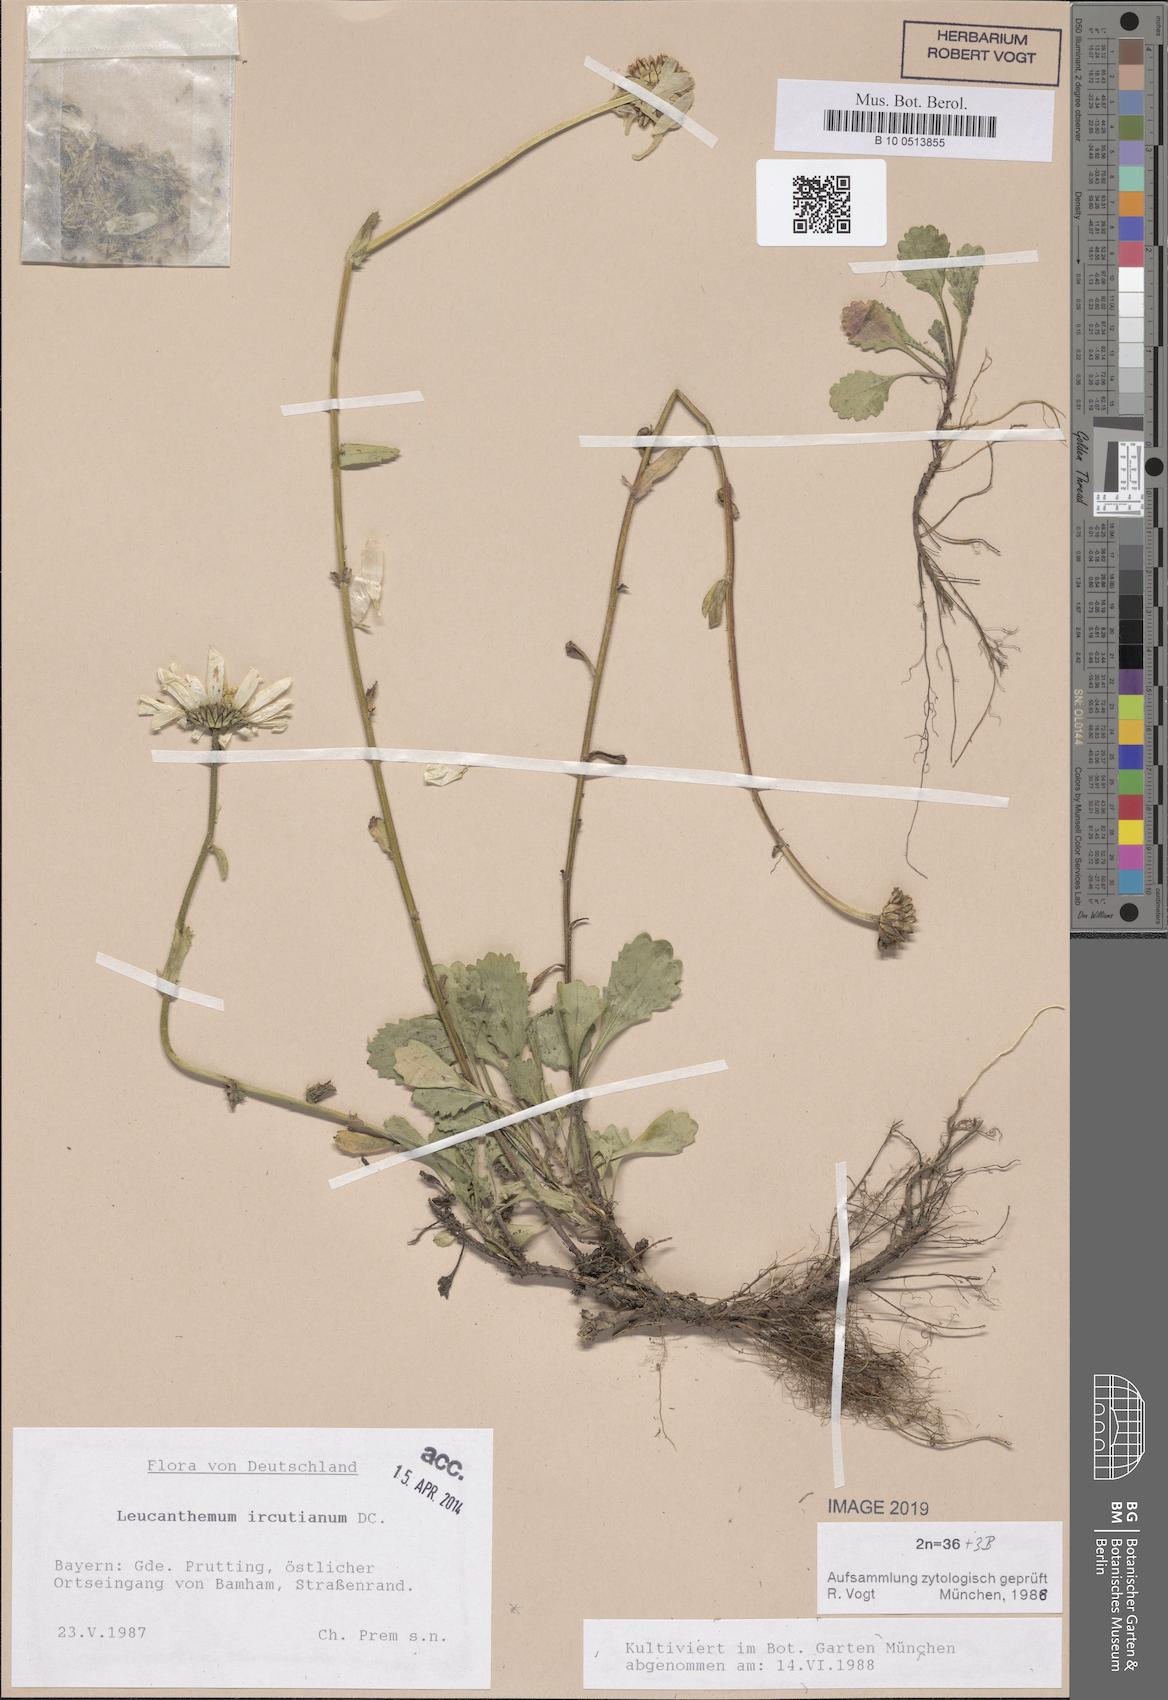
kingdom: Plantae
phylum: Tracheophyta
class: Magnoliopsida
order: Asterales
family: Asteraceae
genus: Leucanthemum
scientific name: Leucanthemum ircutianum
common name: Daisy
